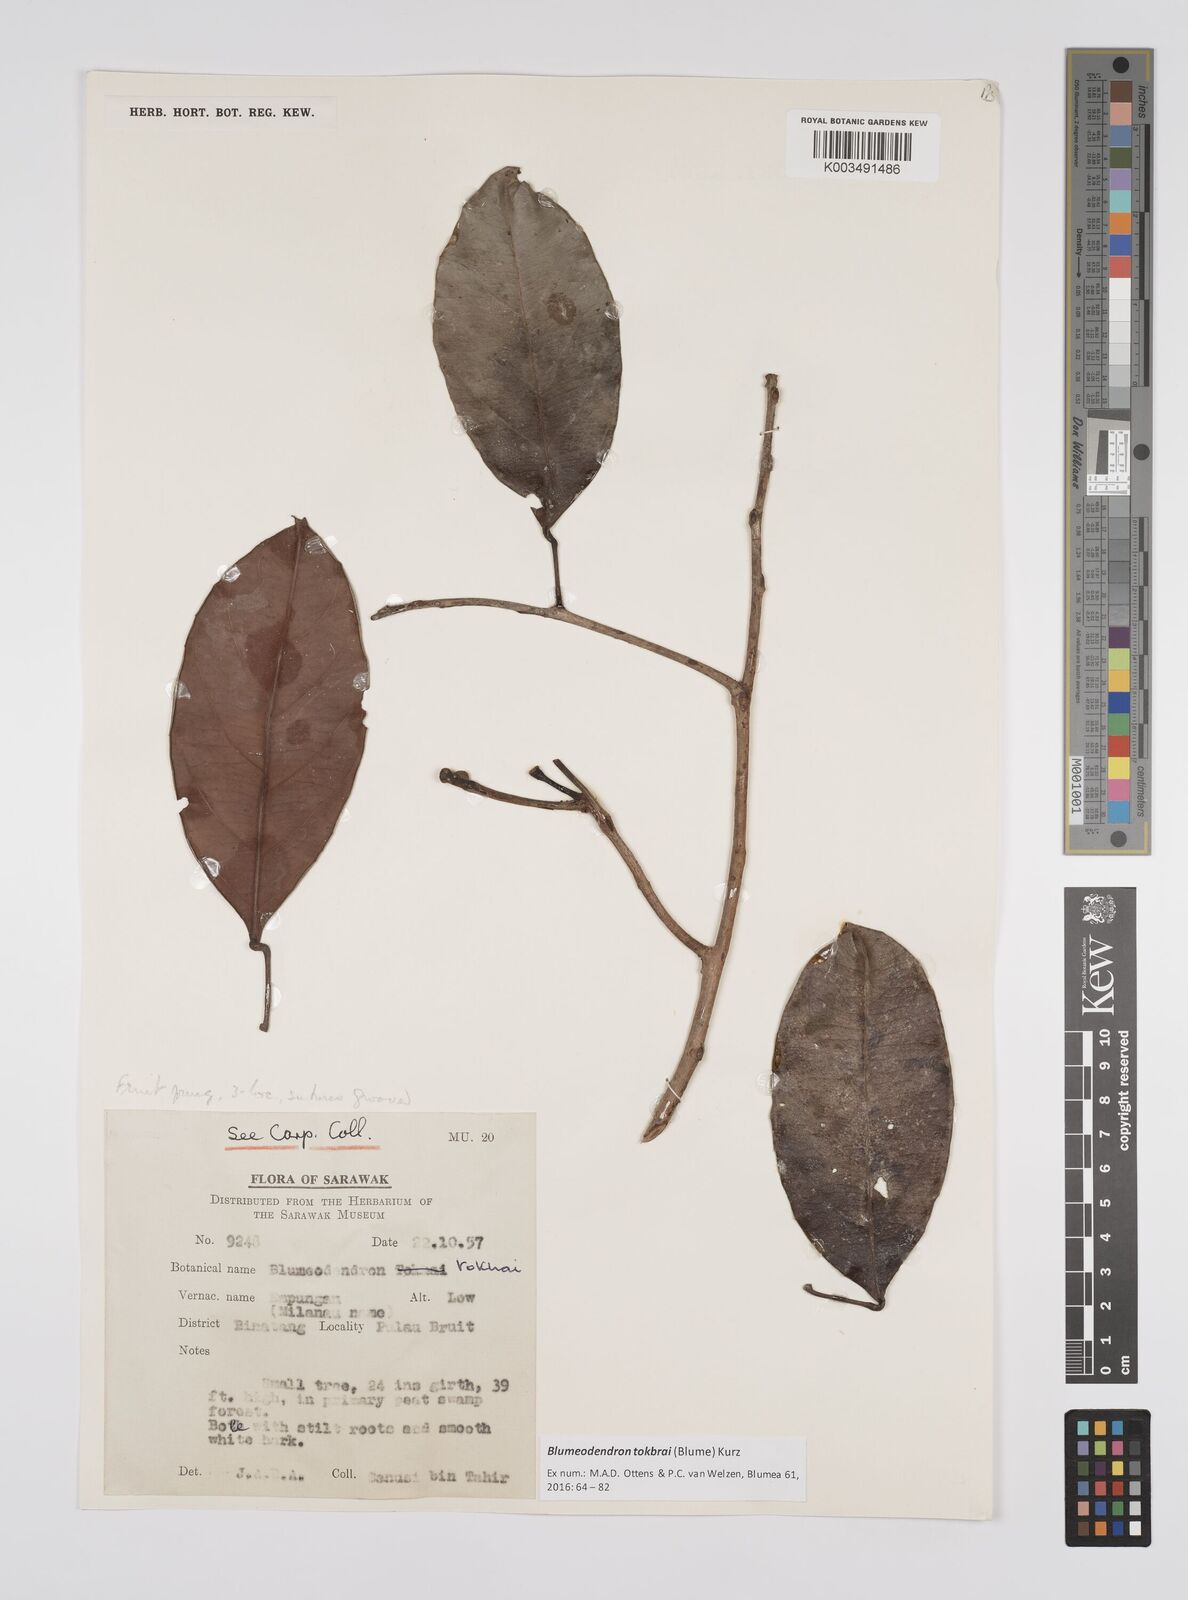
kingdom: Plantae
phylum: Tracheophyta
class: Magnoliopsida
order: Malpighiales
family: Euphorbiaceae
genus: Blumeodendron
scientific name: Blumeodendron tokbrai
